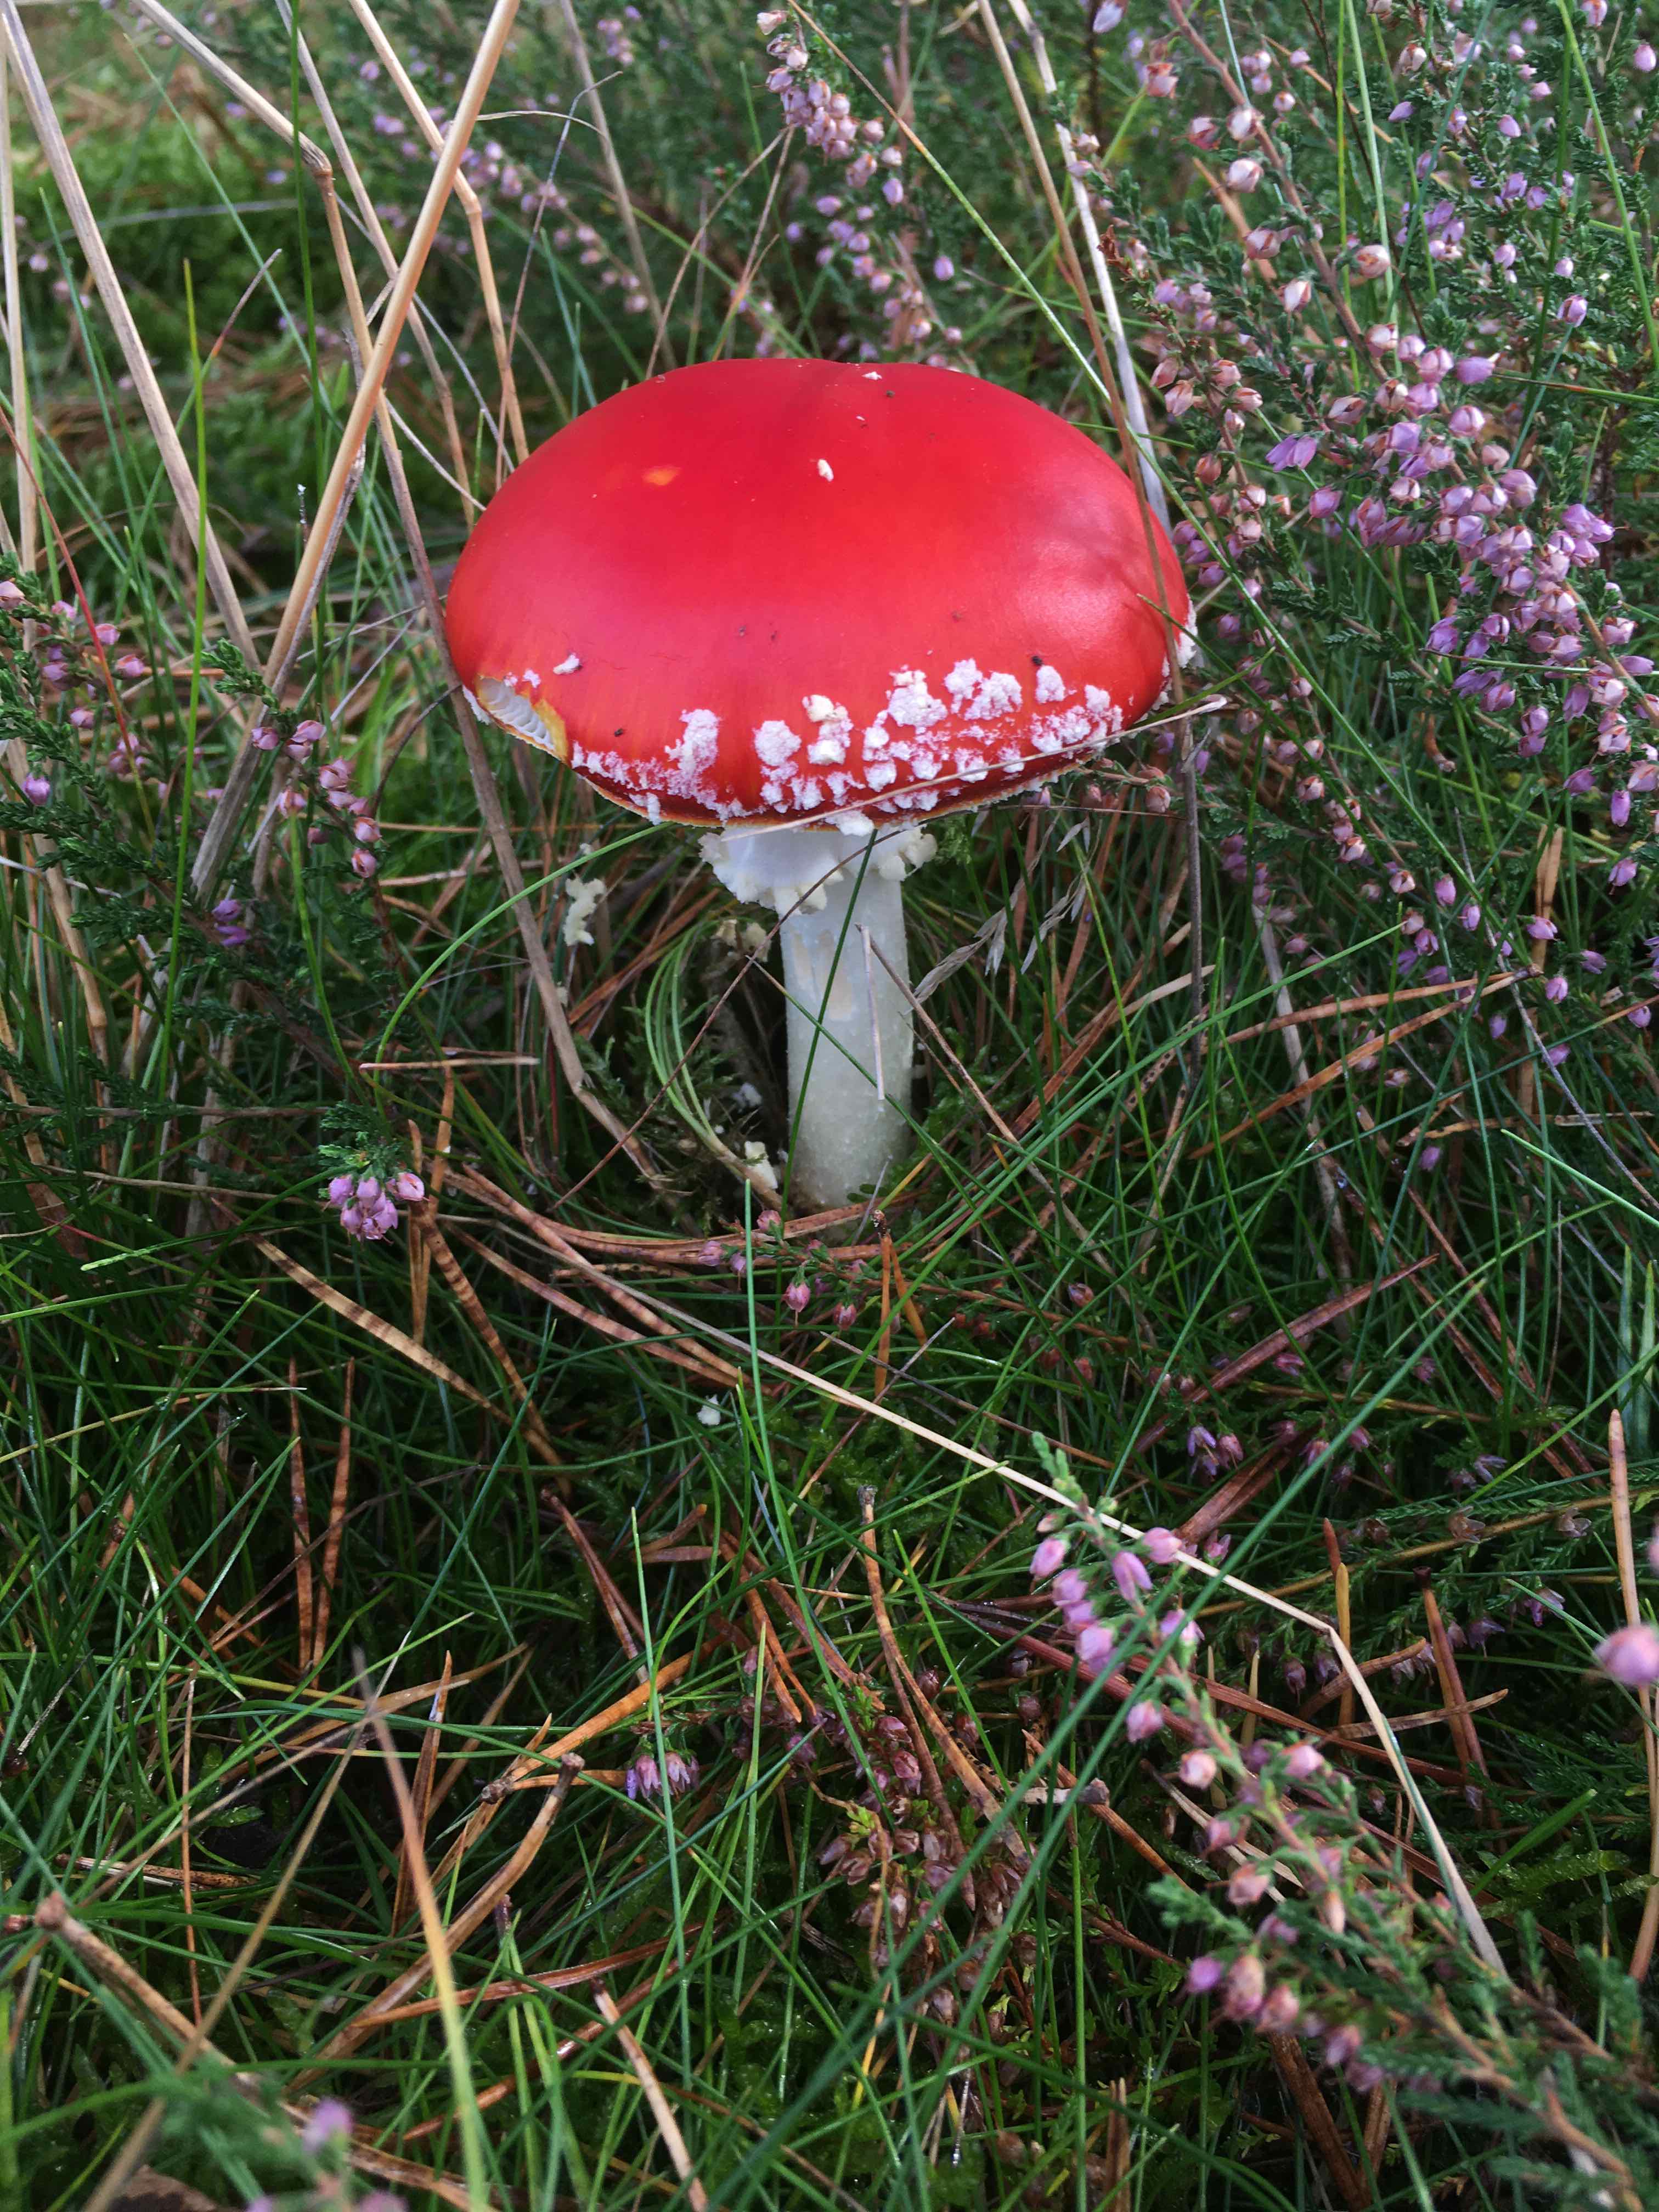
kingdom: Fungi
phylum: Basidiomycota
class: Agaricomycetes
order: Agaricales
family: Amanitaceae
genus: Amanita
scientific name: Amanita muscaria
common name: rød fluesvamp
